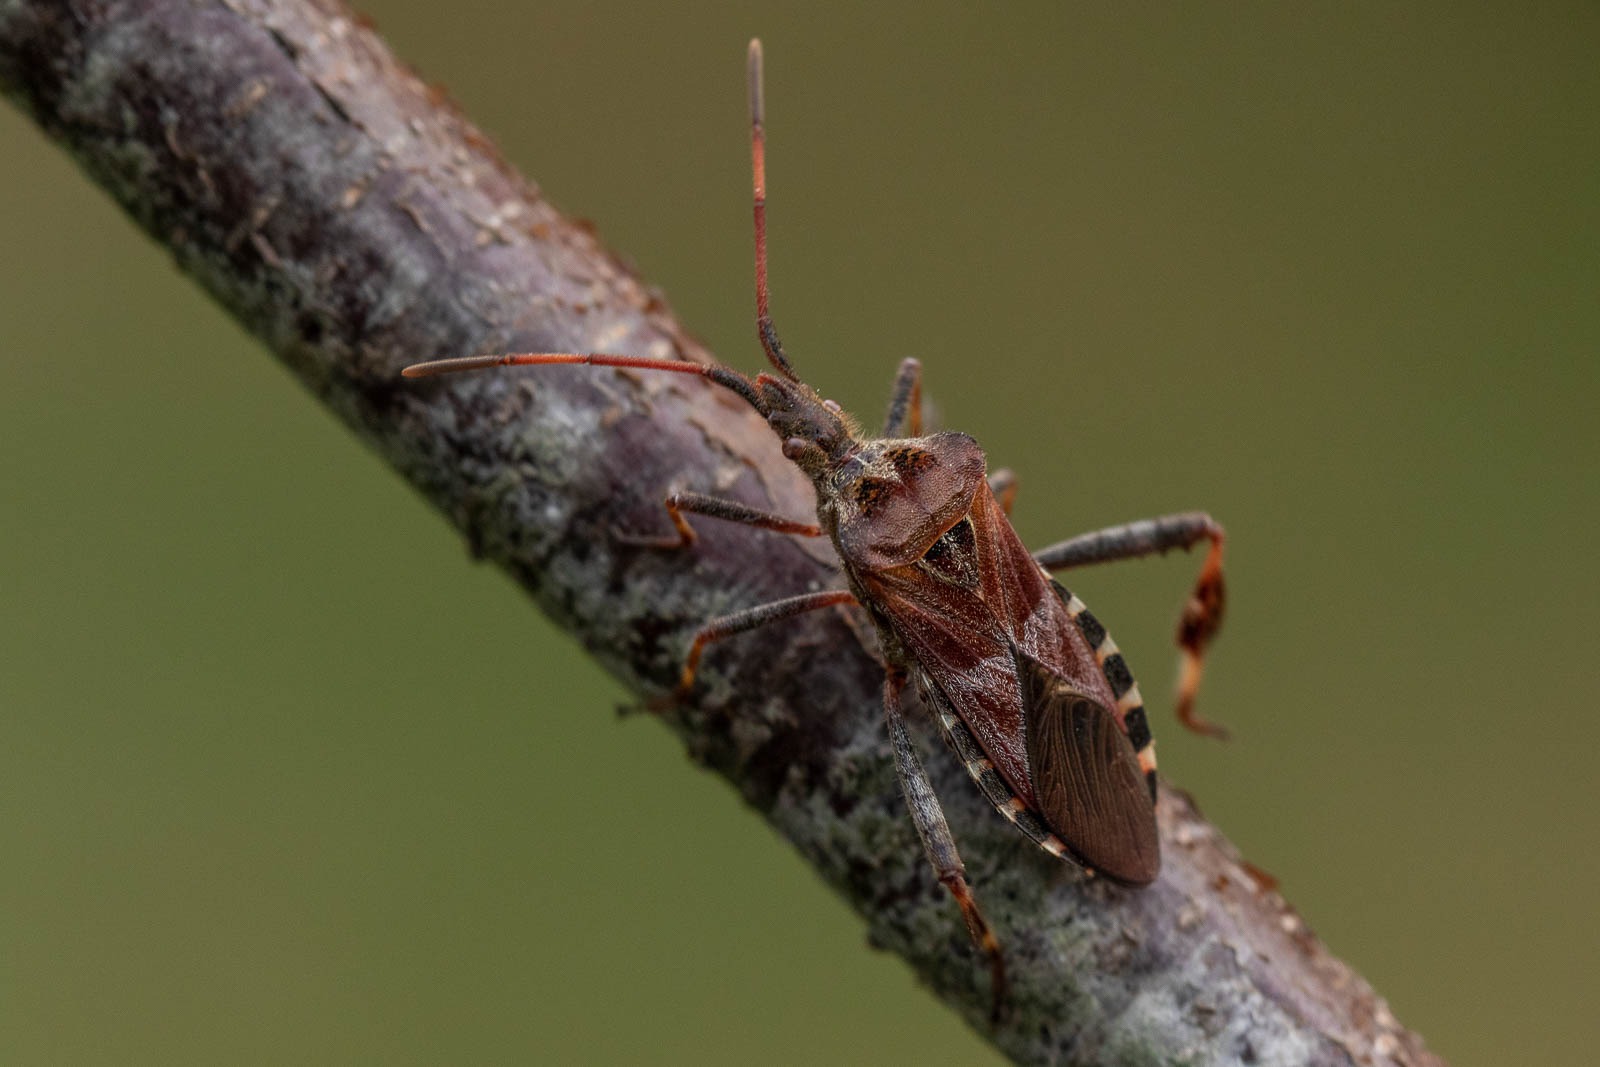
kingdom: Animalia
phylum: Arthropoda
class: Insecta
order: Hemiptera
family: Coreidae
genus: Leptoglossus
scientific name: Leptoglossus occidentalis
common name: Amerikansk fyrretæge
